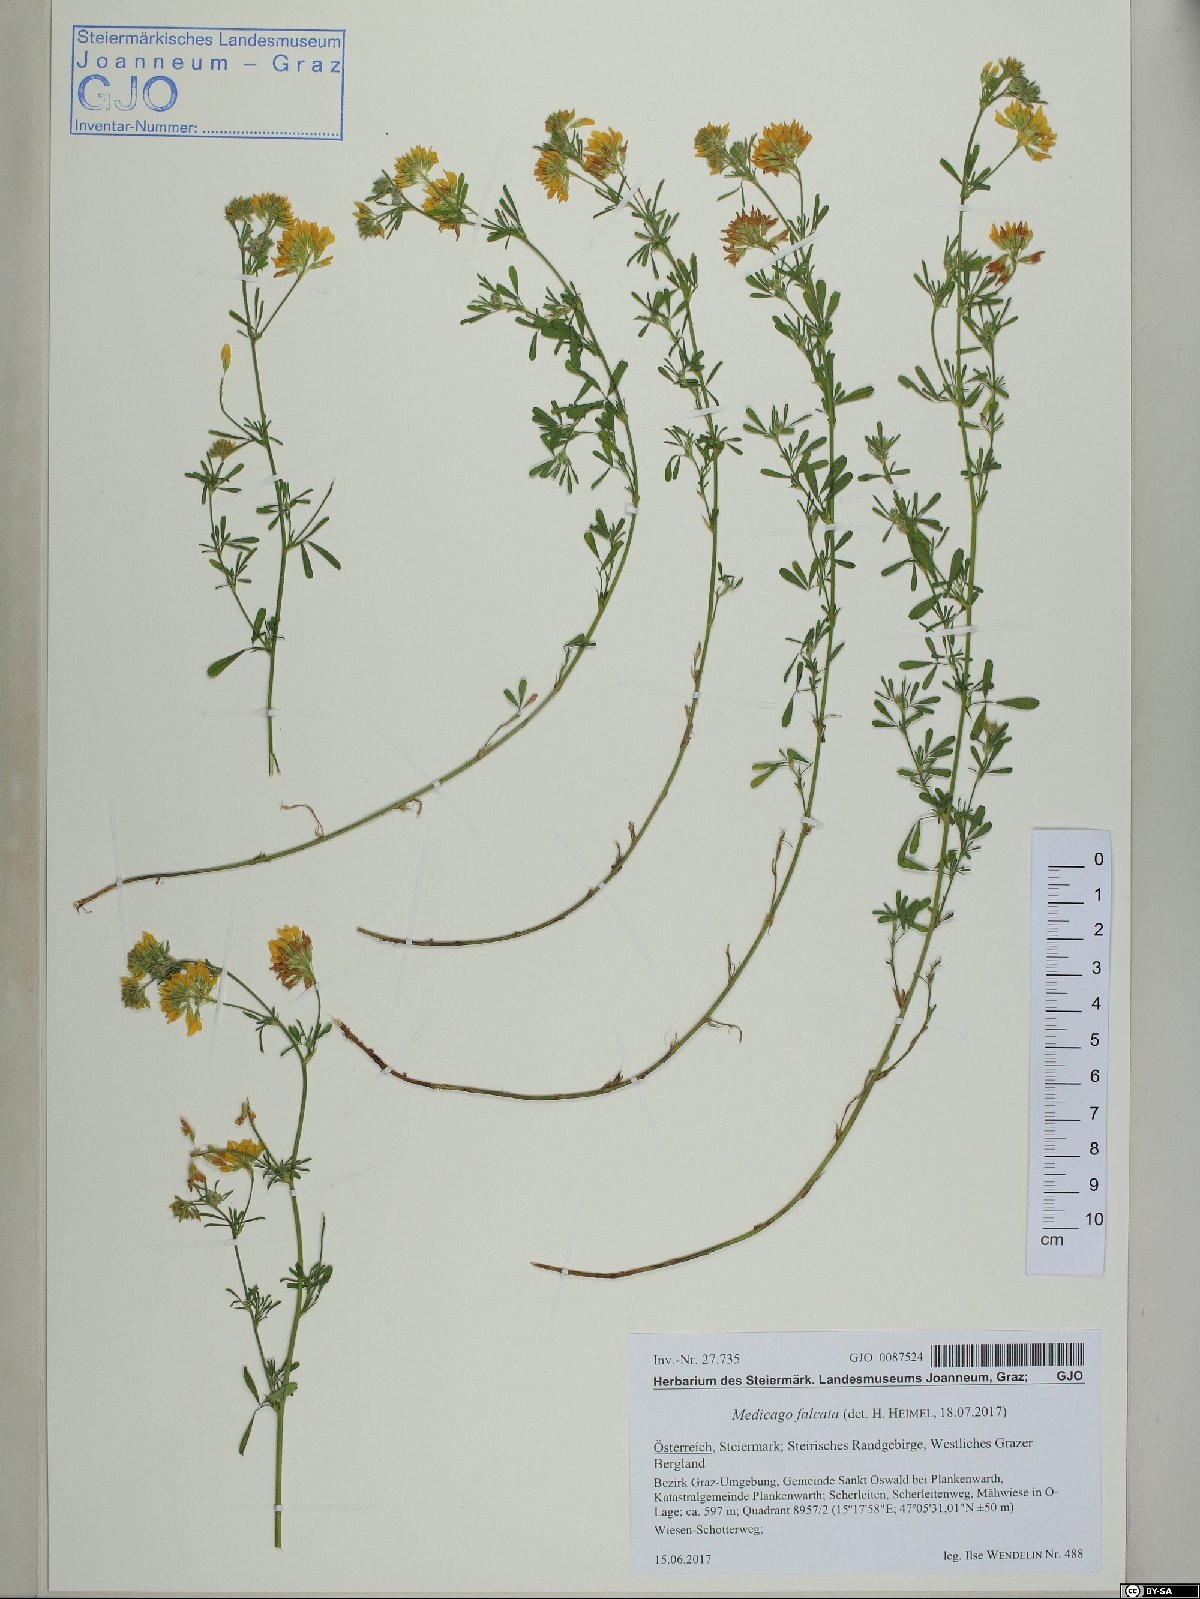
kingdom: Plantae
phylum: Tracheophyta
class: Magnoliopsida
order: Fabales
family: Fabaceae
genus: Medicago
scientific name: Medicago falcata
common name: Sickle medick
